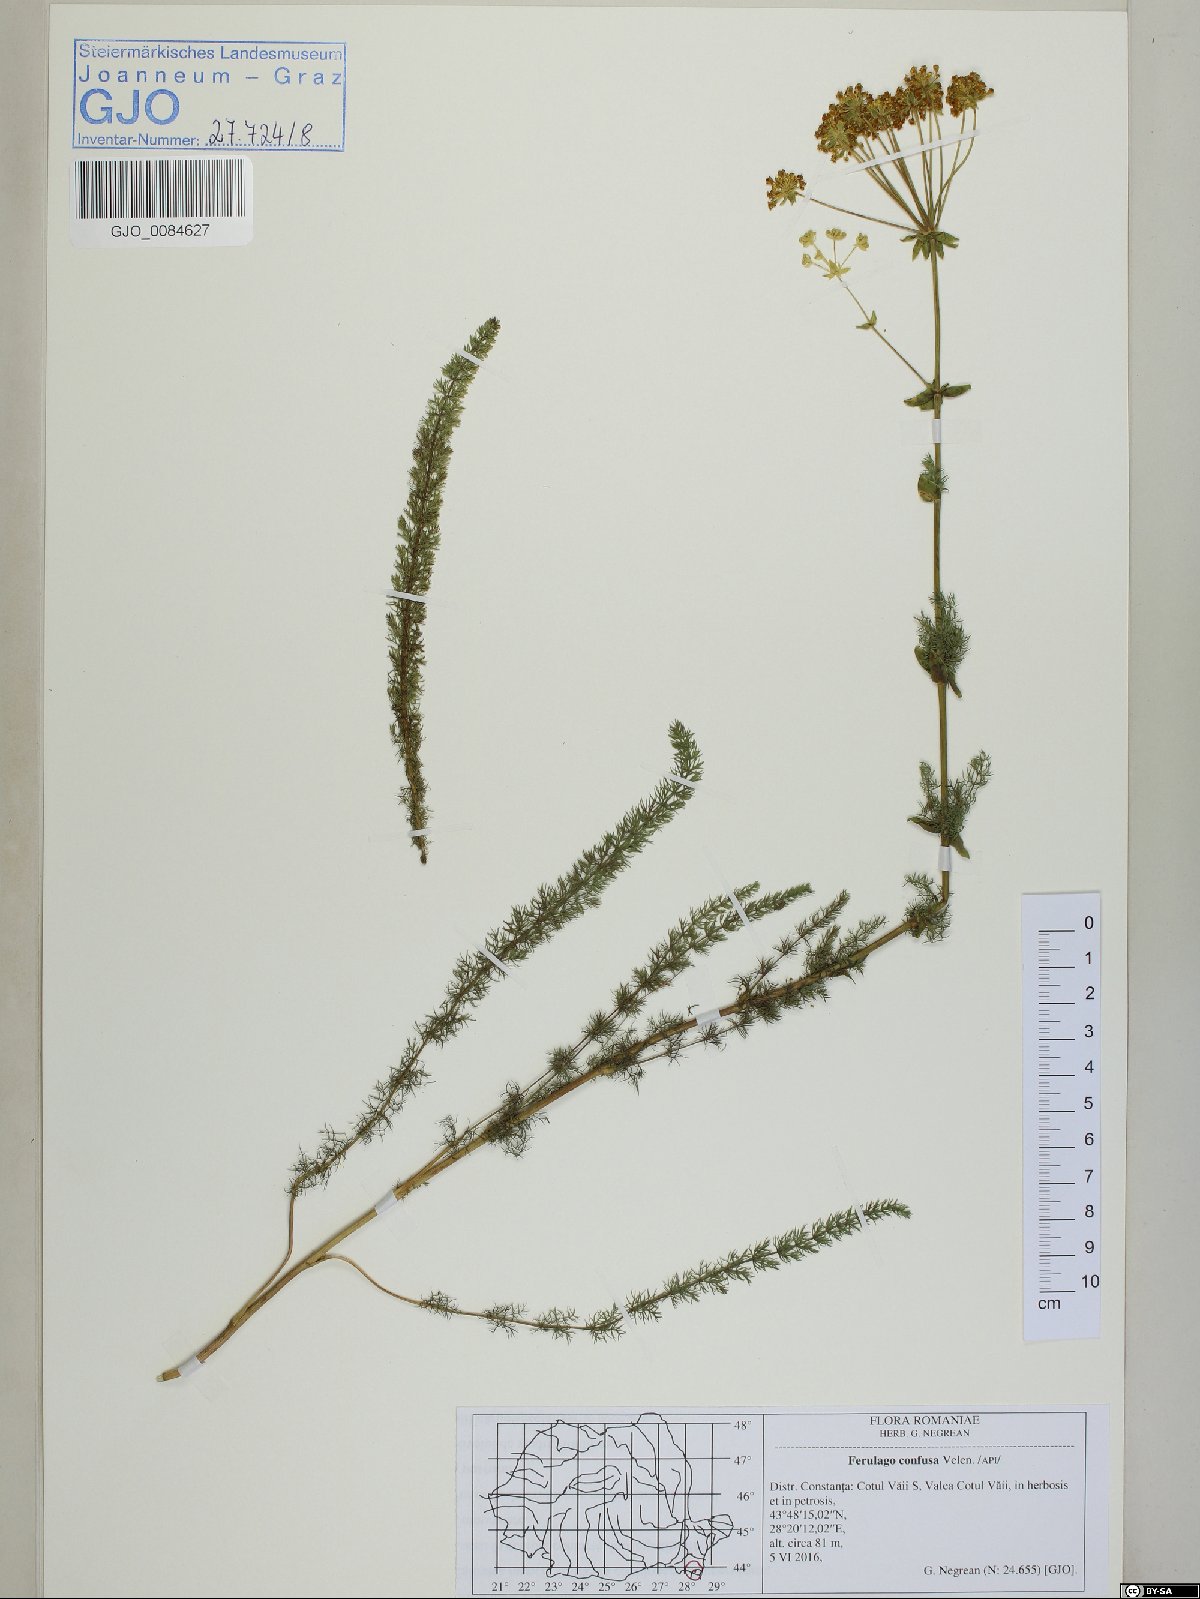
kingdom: Plantae
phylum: Tracheophyta
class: Magnoliopsida
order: Apiales
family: Apiaceae
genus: Ferulago
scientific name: Ferulago sylvatica
